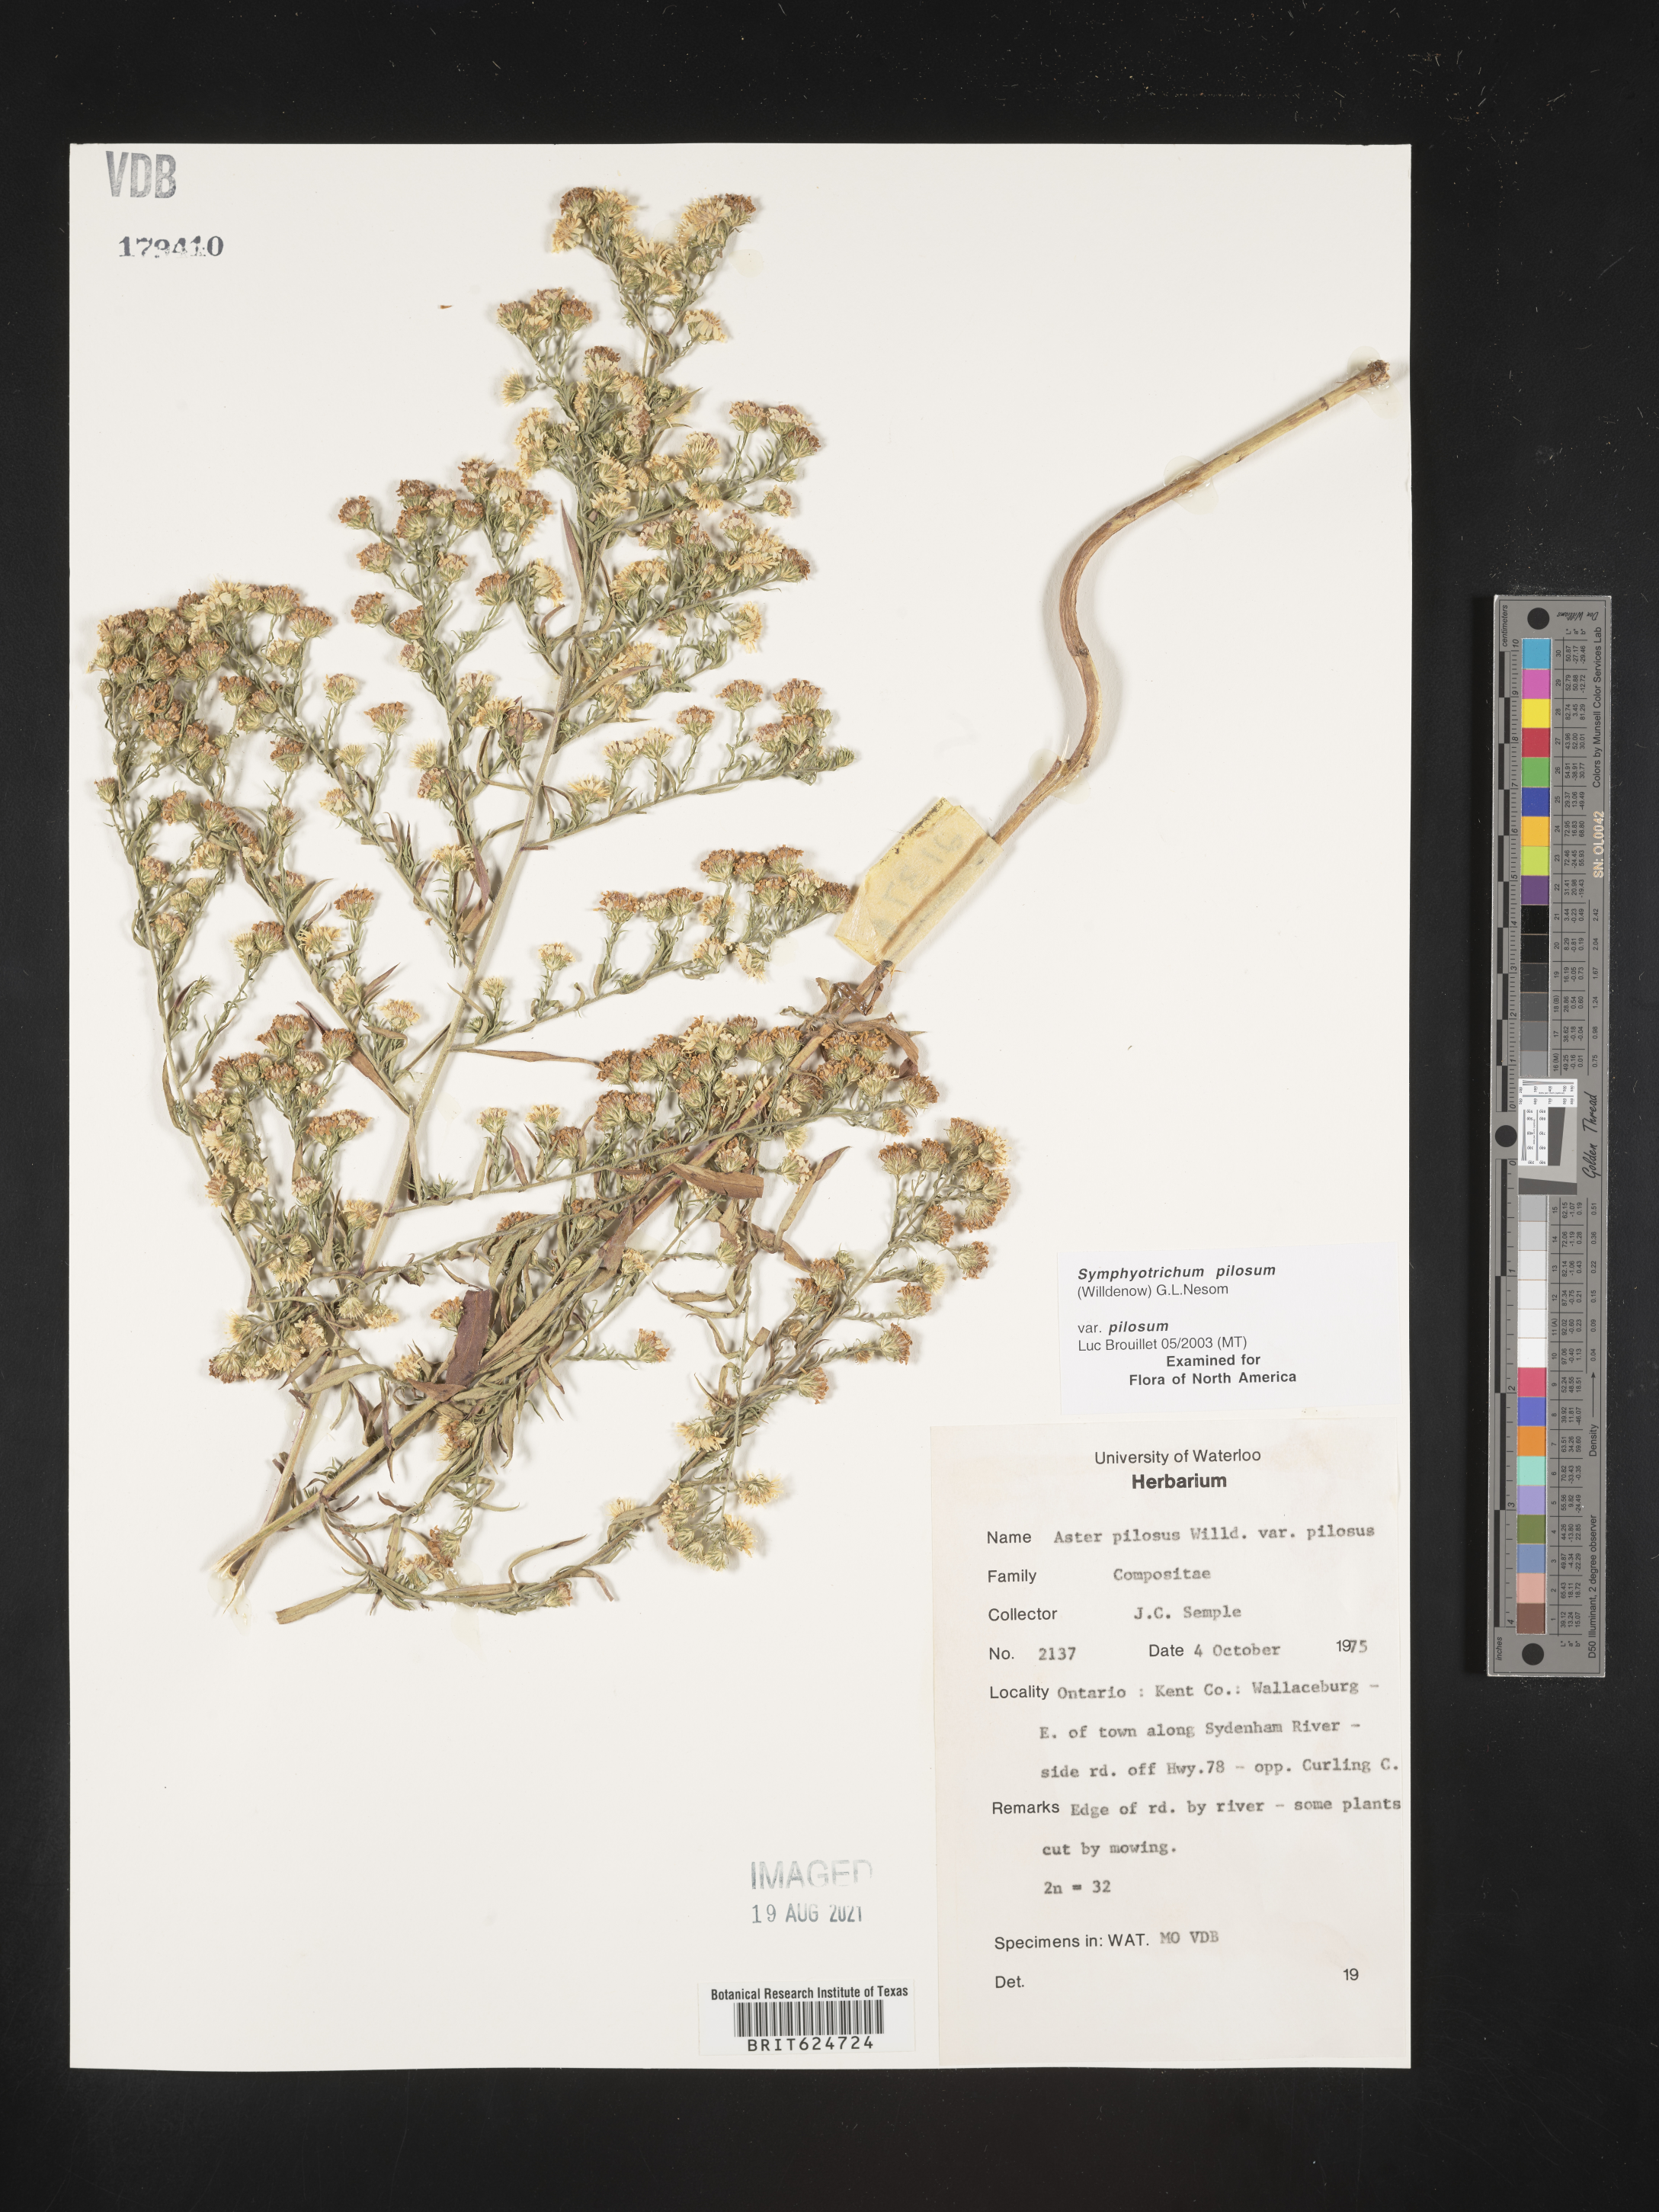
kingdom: Plantae
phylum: Tracheophyta
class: Magnoliopsida
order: Asterales
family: Asteraceae
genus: Symphyotrichum
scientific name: Symphyotrichum pilosum
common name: Awl aster
